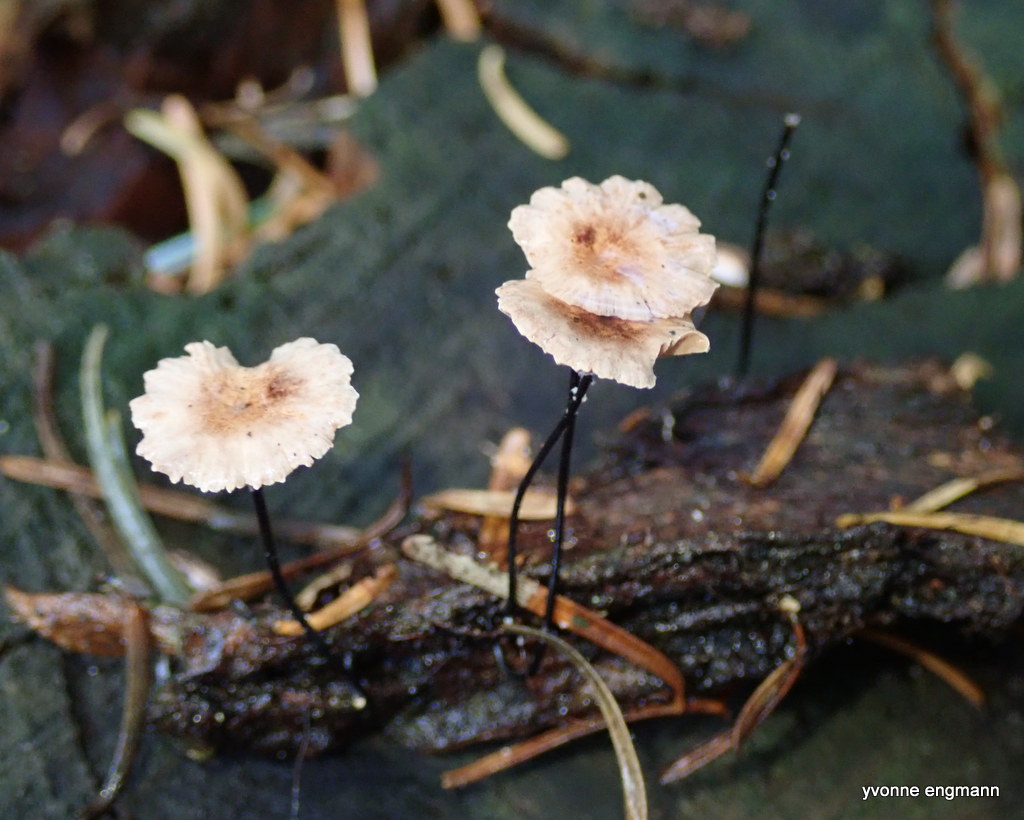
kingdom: Fungi
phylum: Basidiomycota
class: Agaricomycetes
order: Agaricales
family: Omphalotaceae
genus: Gymnopus
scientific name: Gymnopus androsaceus
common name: trådstokket fladhat
